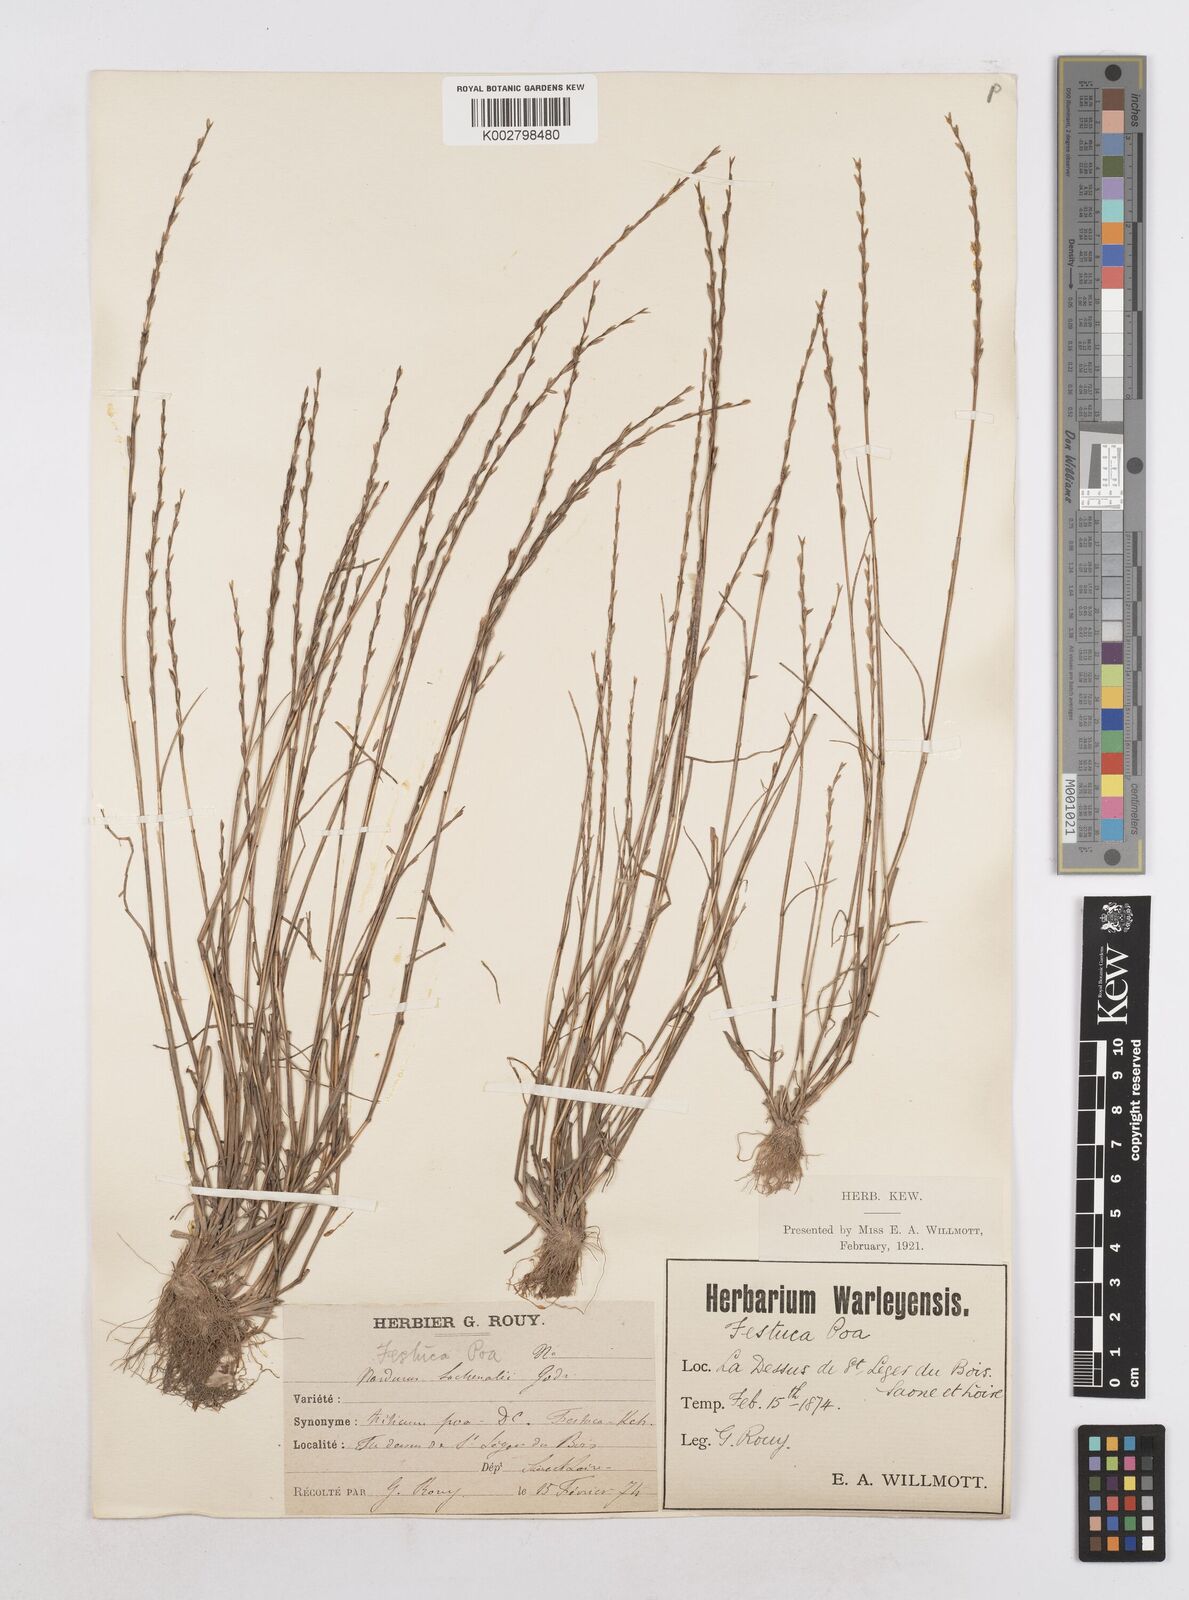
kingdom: Plantae
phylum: Tracheophyta
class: Liliopsida
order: Poales
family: Poaceae
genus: Festuca
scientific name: Festuca lachenalii
